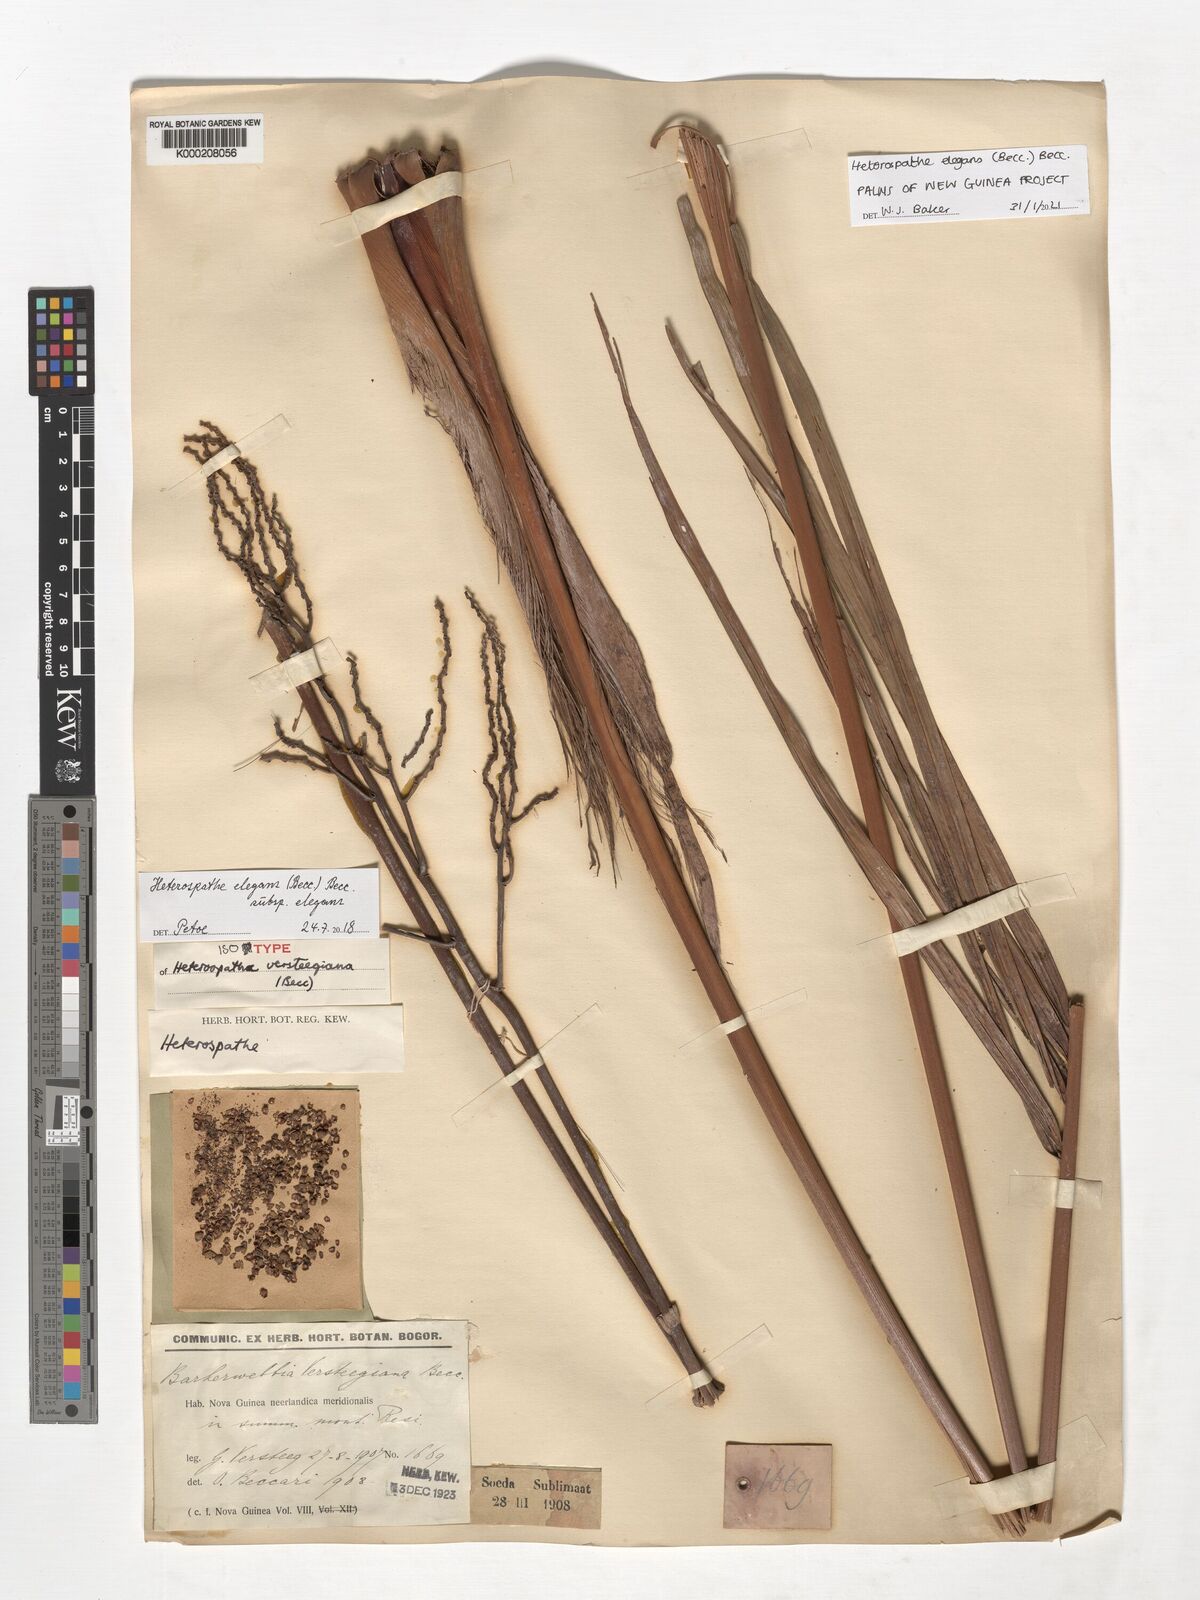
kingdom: Plantae
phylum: Tracheophyta
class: Liliopsida
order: Arecales
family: Arecaceae
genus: Heterospathe
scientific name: Heterospathe elegans
